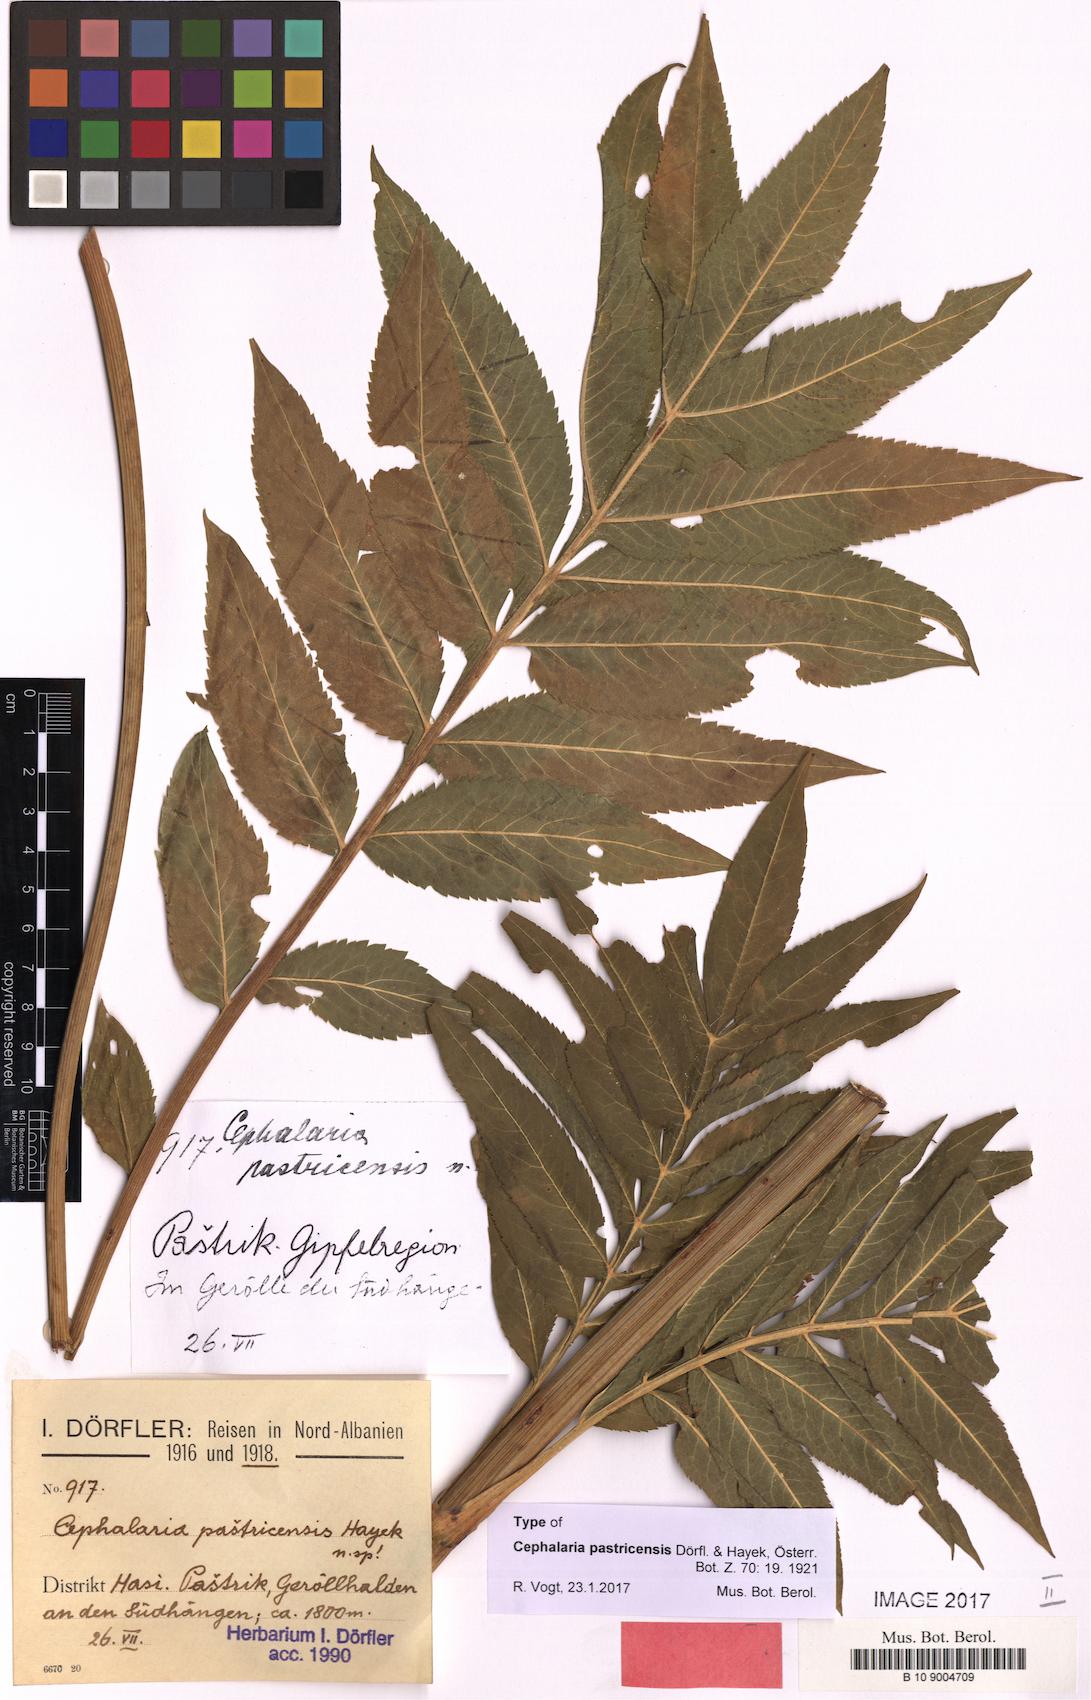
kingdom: Plantae
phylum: Tracheophyta
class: Magnoliopsida
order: Dipsacales
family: Caprifoliaceae
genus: Cephalaria
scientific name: Cephalaria pastricensis
